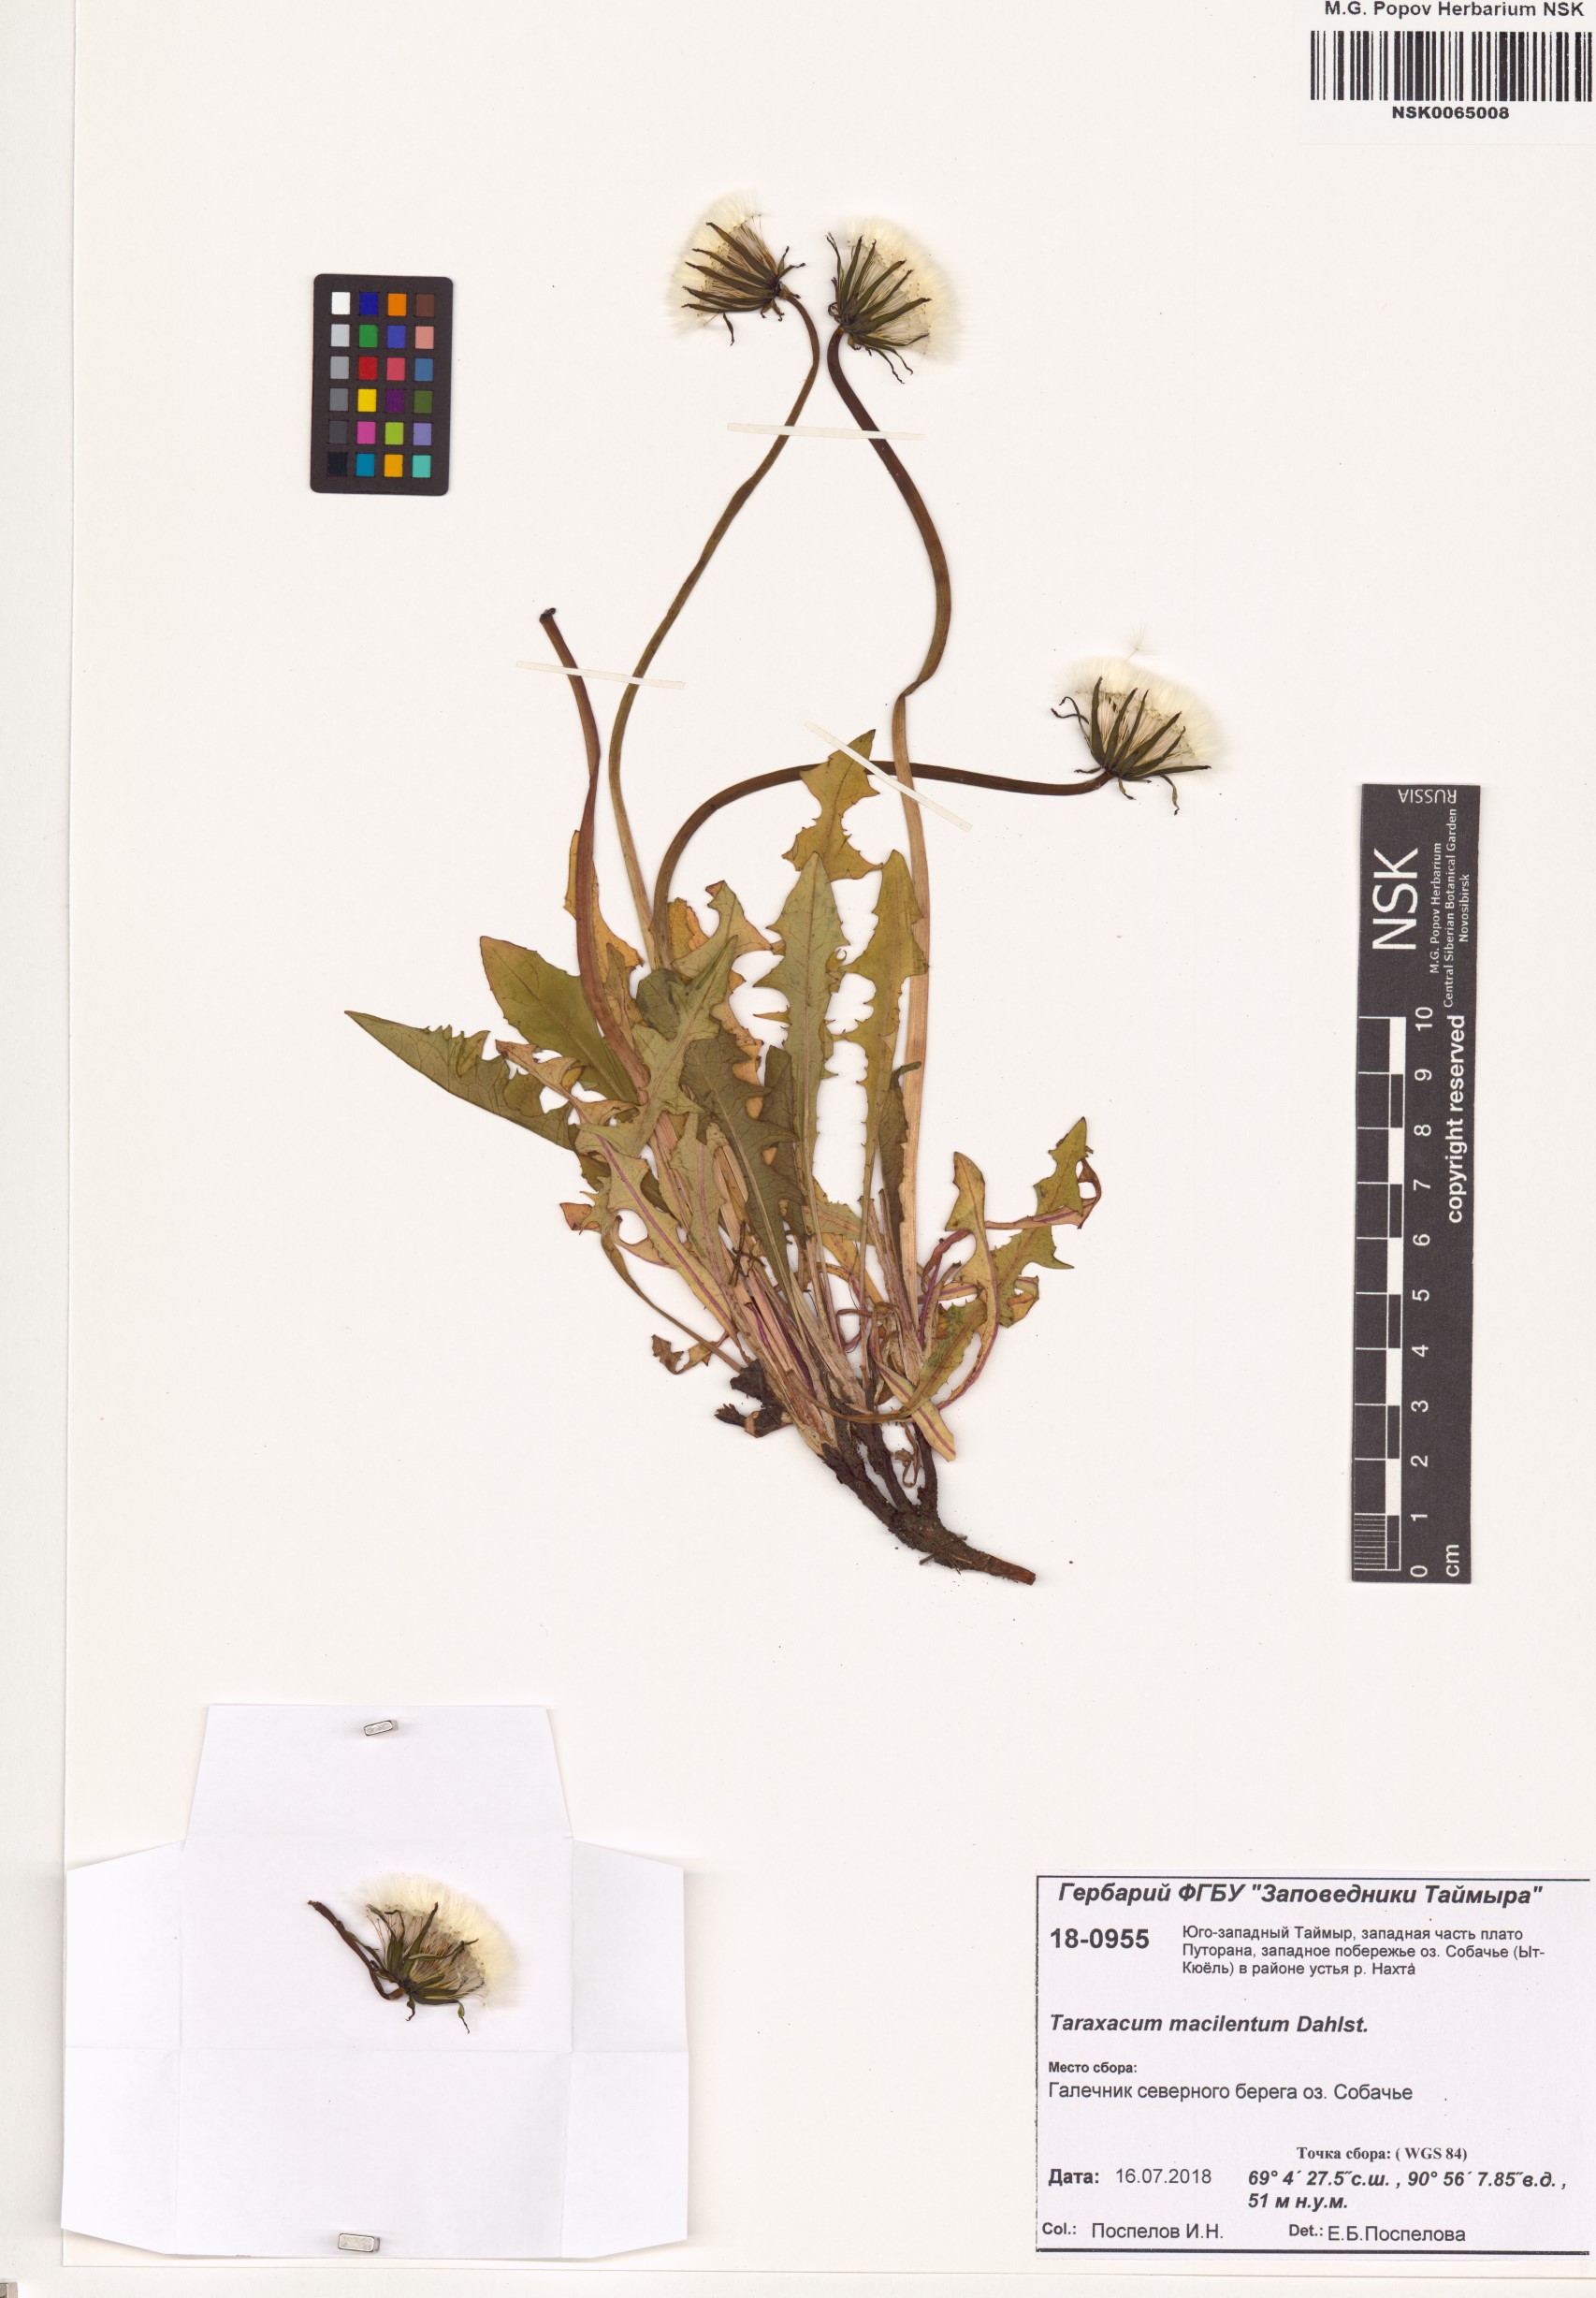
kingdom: Plantae
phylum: Tracheophyta
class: Magnoliopsida
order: Asterales
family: Asteraceae
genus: Taraxacum
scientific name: Taraxacum macilentum
